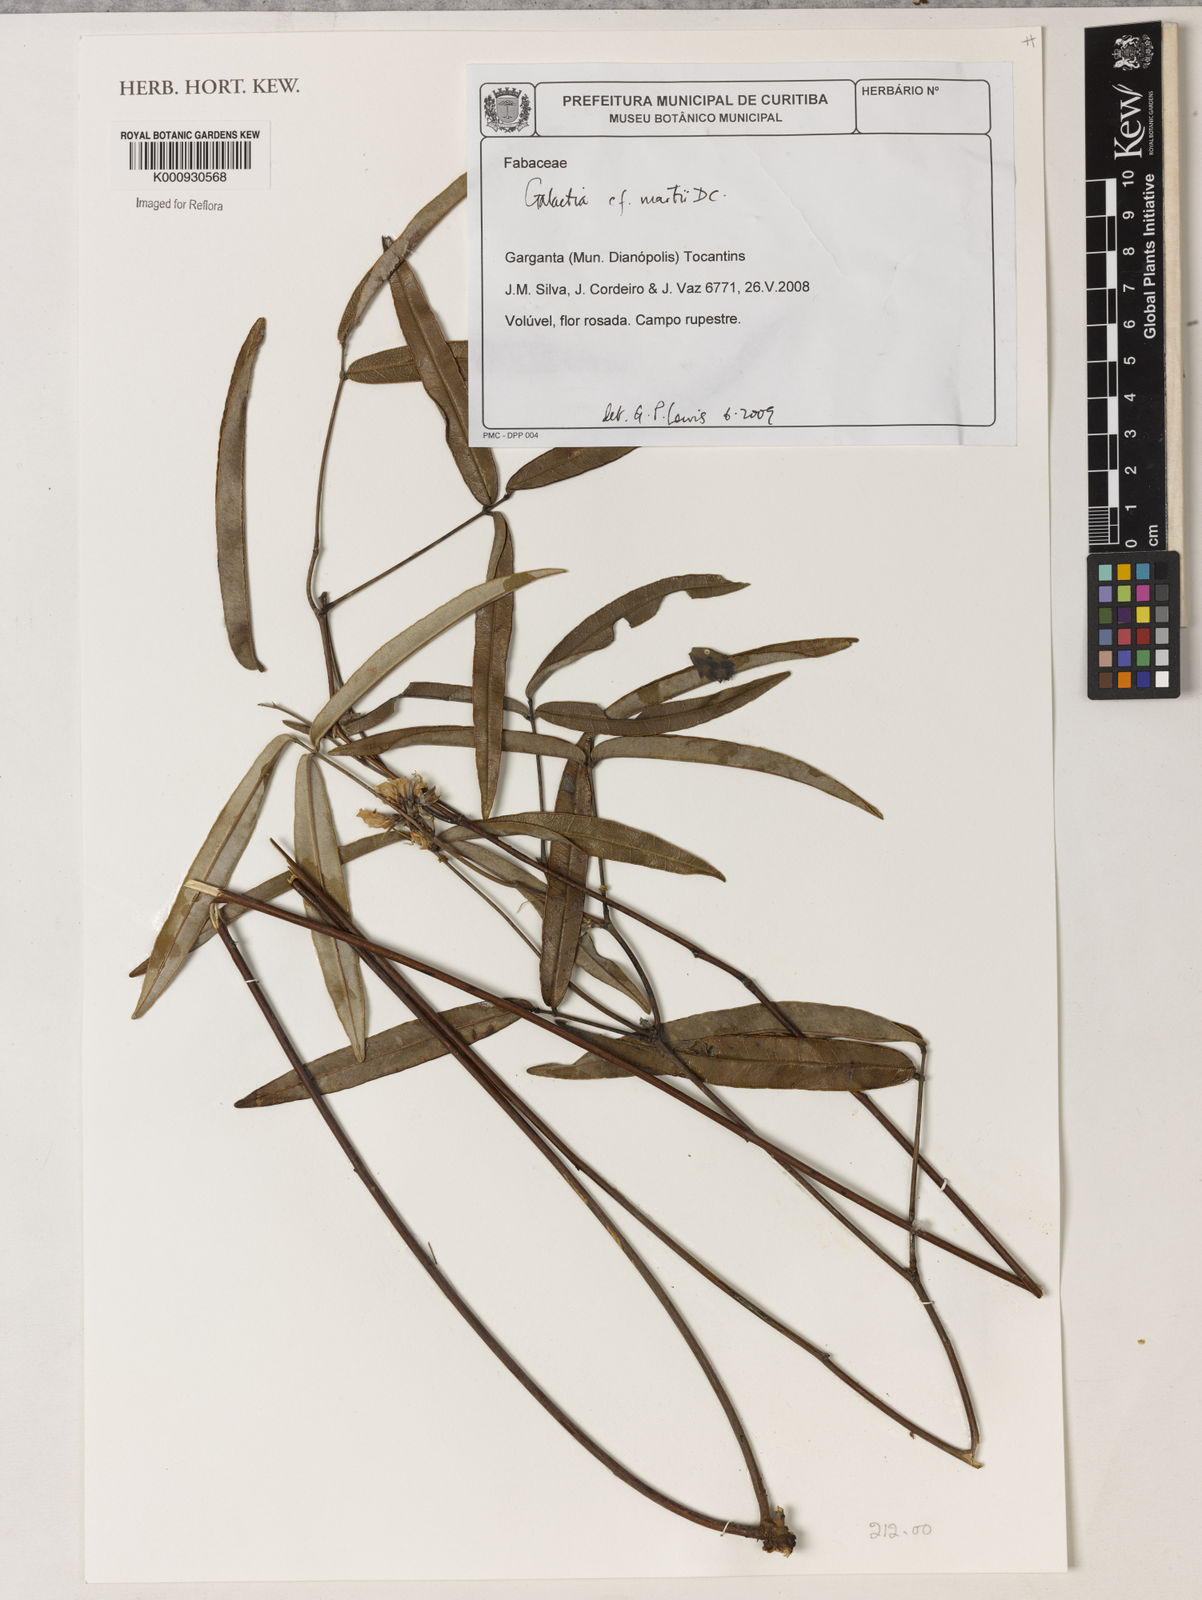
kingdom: Plantae
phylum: Tracheophyta
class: Magnoliopsida
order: Fabales
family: Fabaceae
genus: Betencourtia
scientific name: Betencourtia martii
